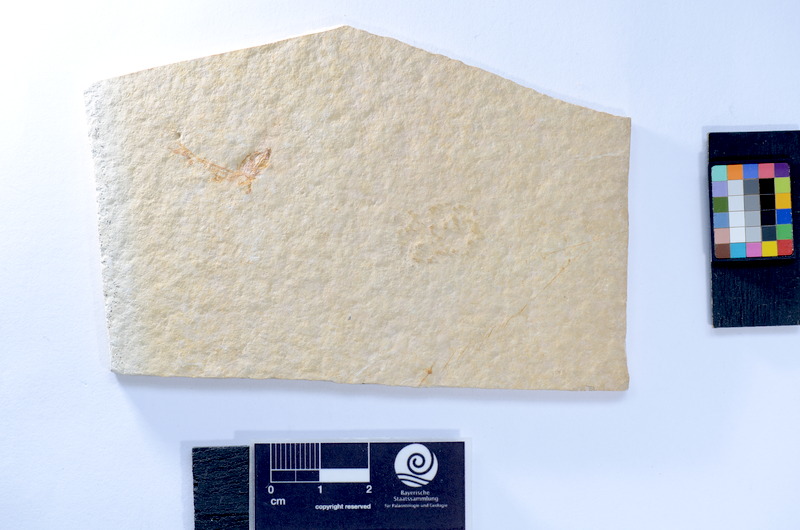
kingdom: Animalia
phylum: Chordata
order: Salmoniformes
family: Orthogonikleithridae
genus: Leptolepides
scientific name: Leptolepides
